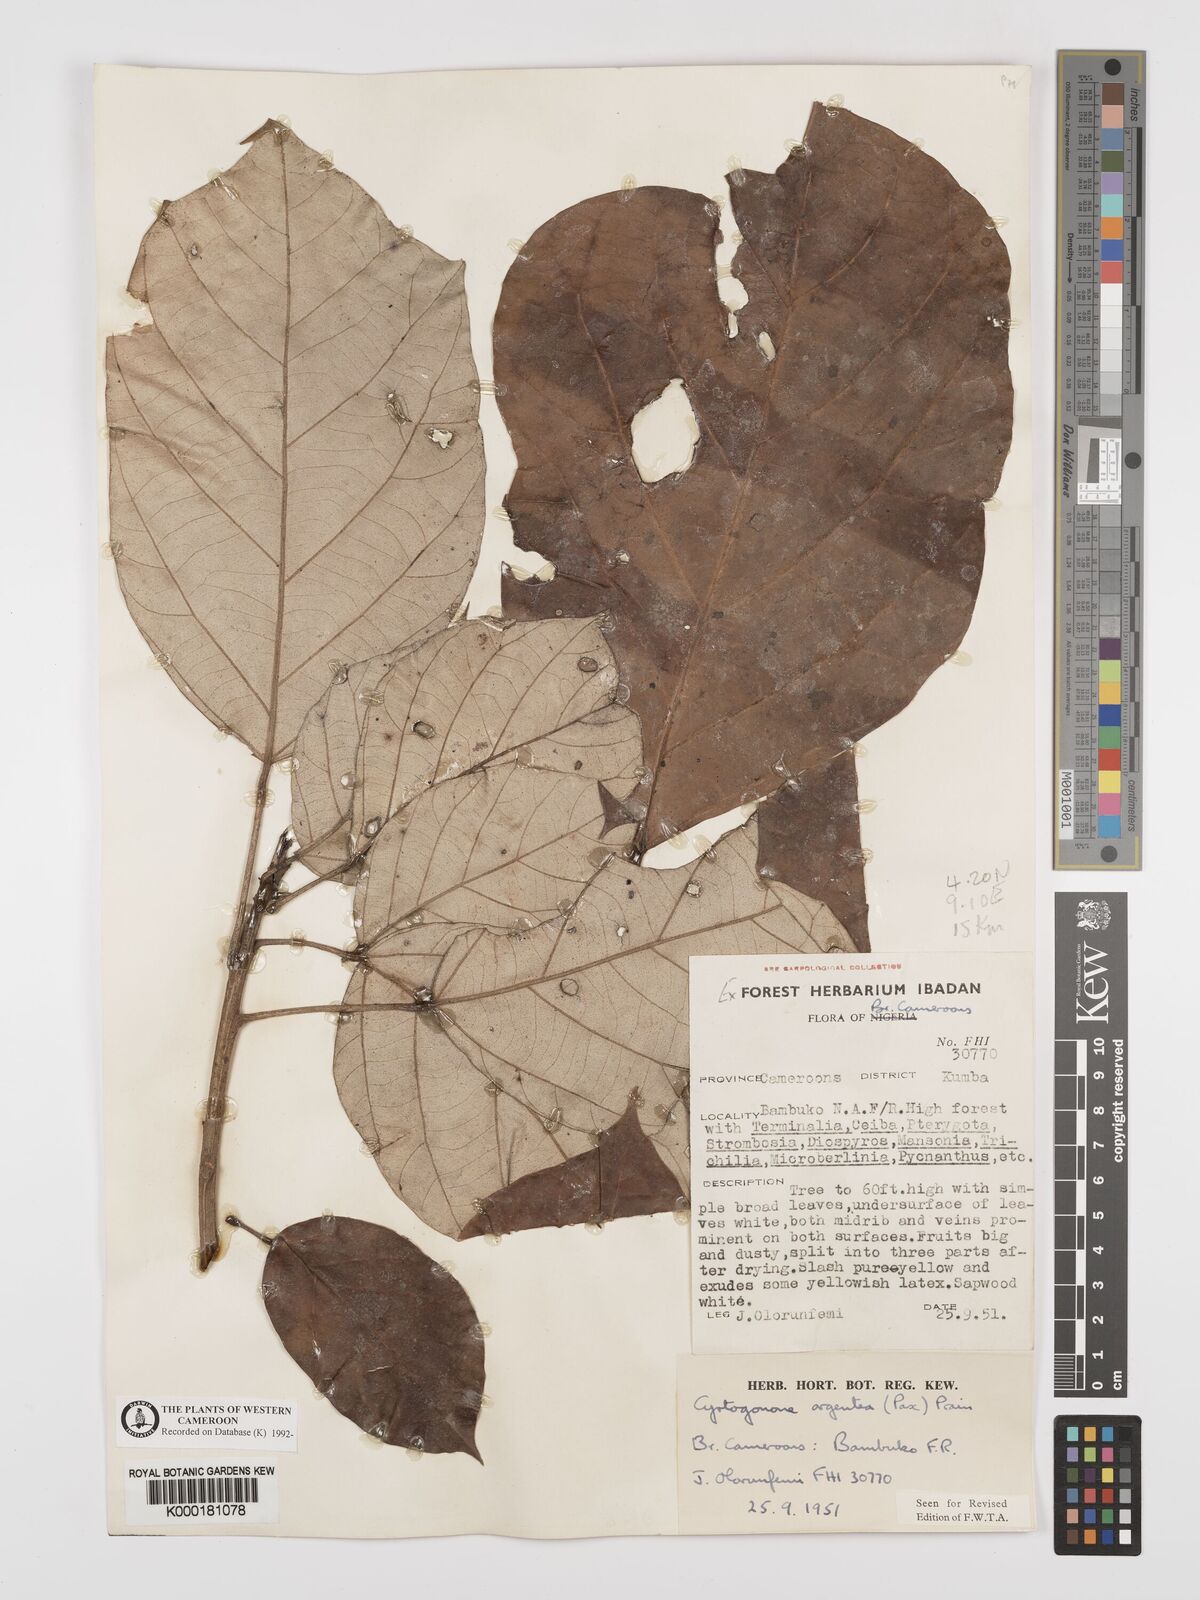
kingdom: Plantae
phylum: Tracheophyta
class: Magnoliopsida
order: Malpighiales
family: Euphorbiaceae
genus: Cyrtogonone
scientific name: Cyrtogonone argentea
